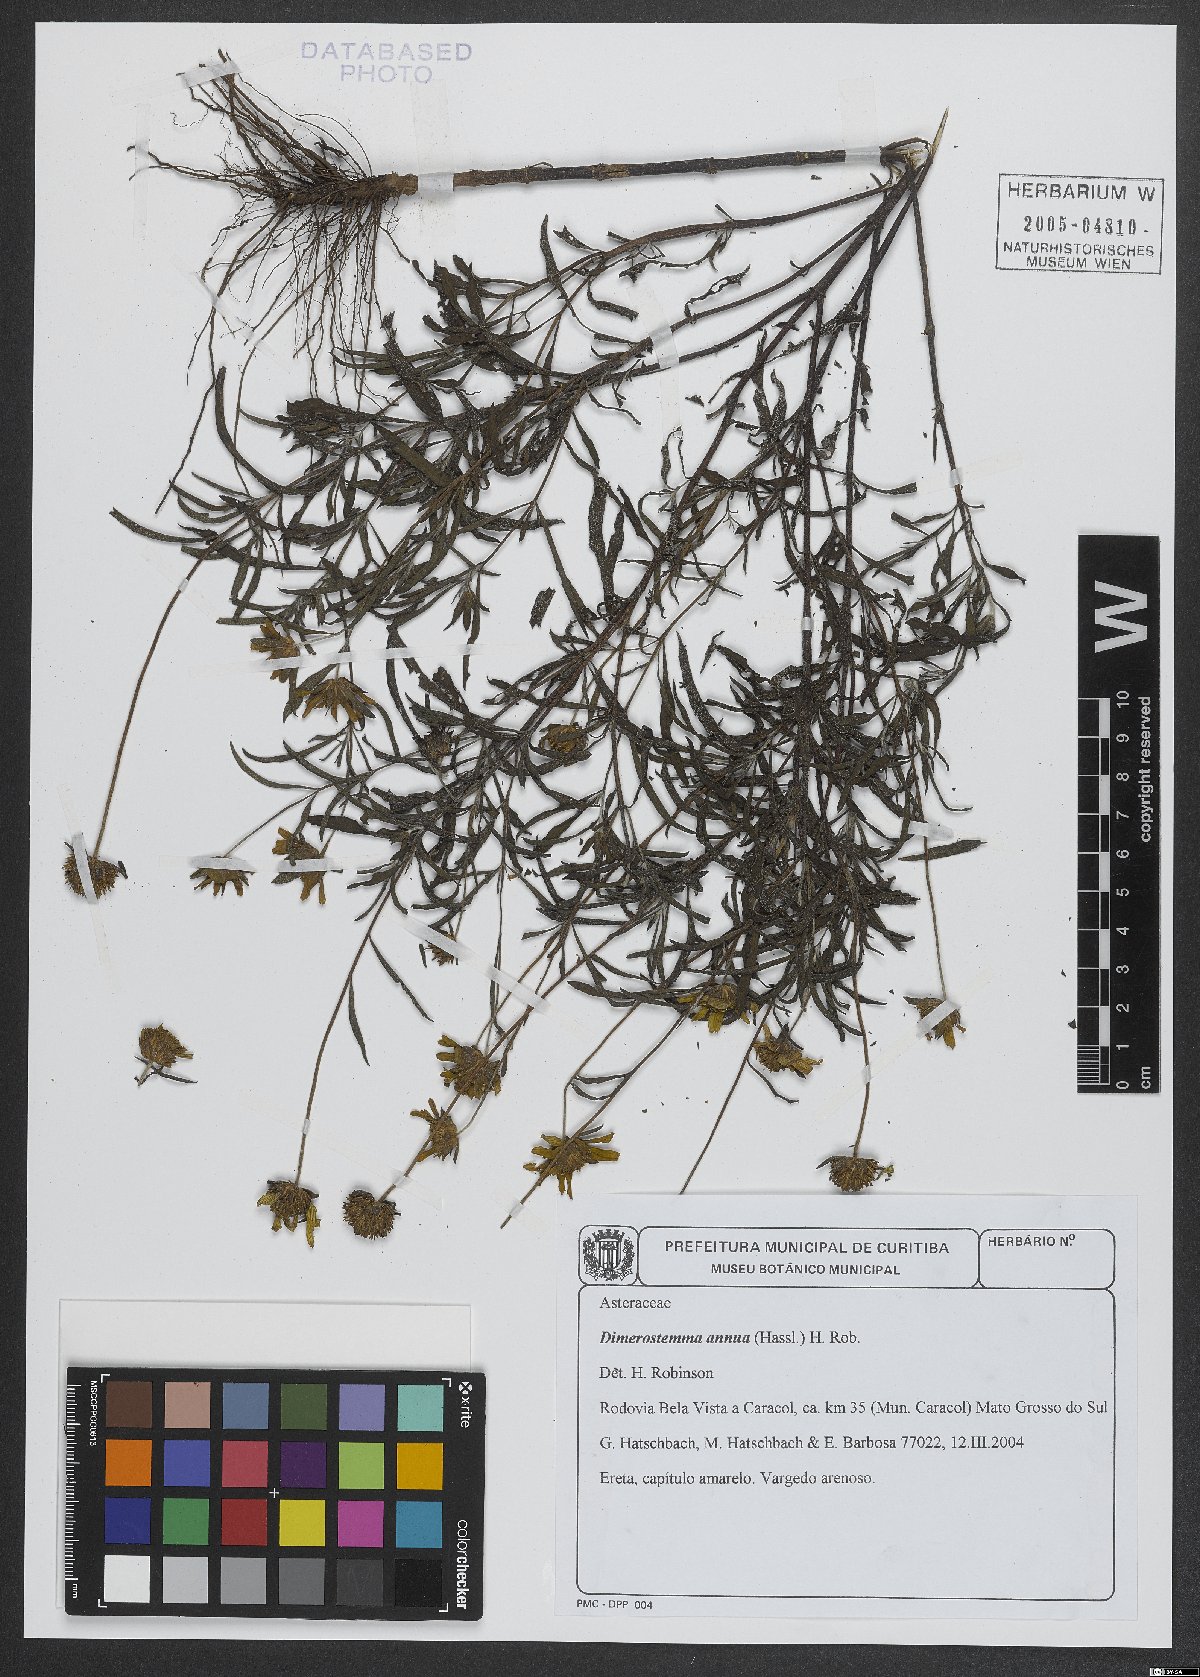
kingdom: Plantae
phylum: Tracheophyta
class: Magnoliopsida
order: Asterales
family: Asteraceae
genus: Dimerostemma
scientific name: Dimerostemma annuum
